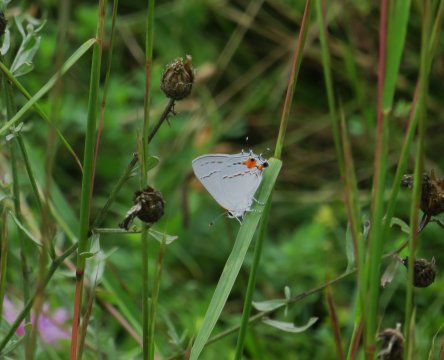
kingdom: Animalia
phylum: Arthropoda
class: Insecta
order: Lepidoptera
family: Lycaenidae
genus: Strymon
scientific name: Strymon melinus
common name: Gray Hairstreak
